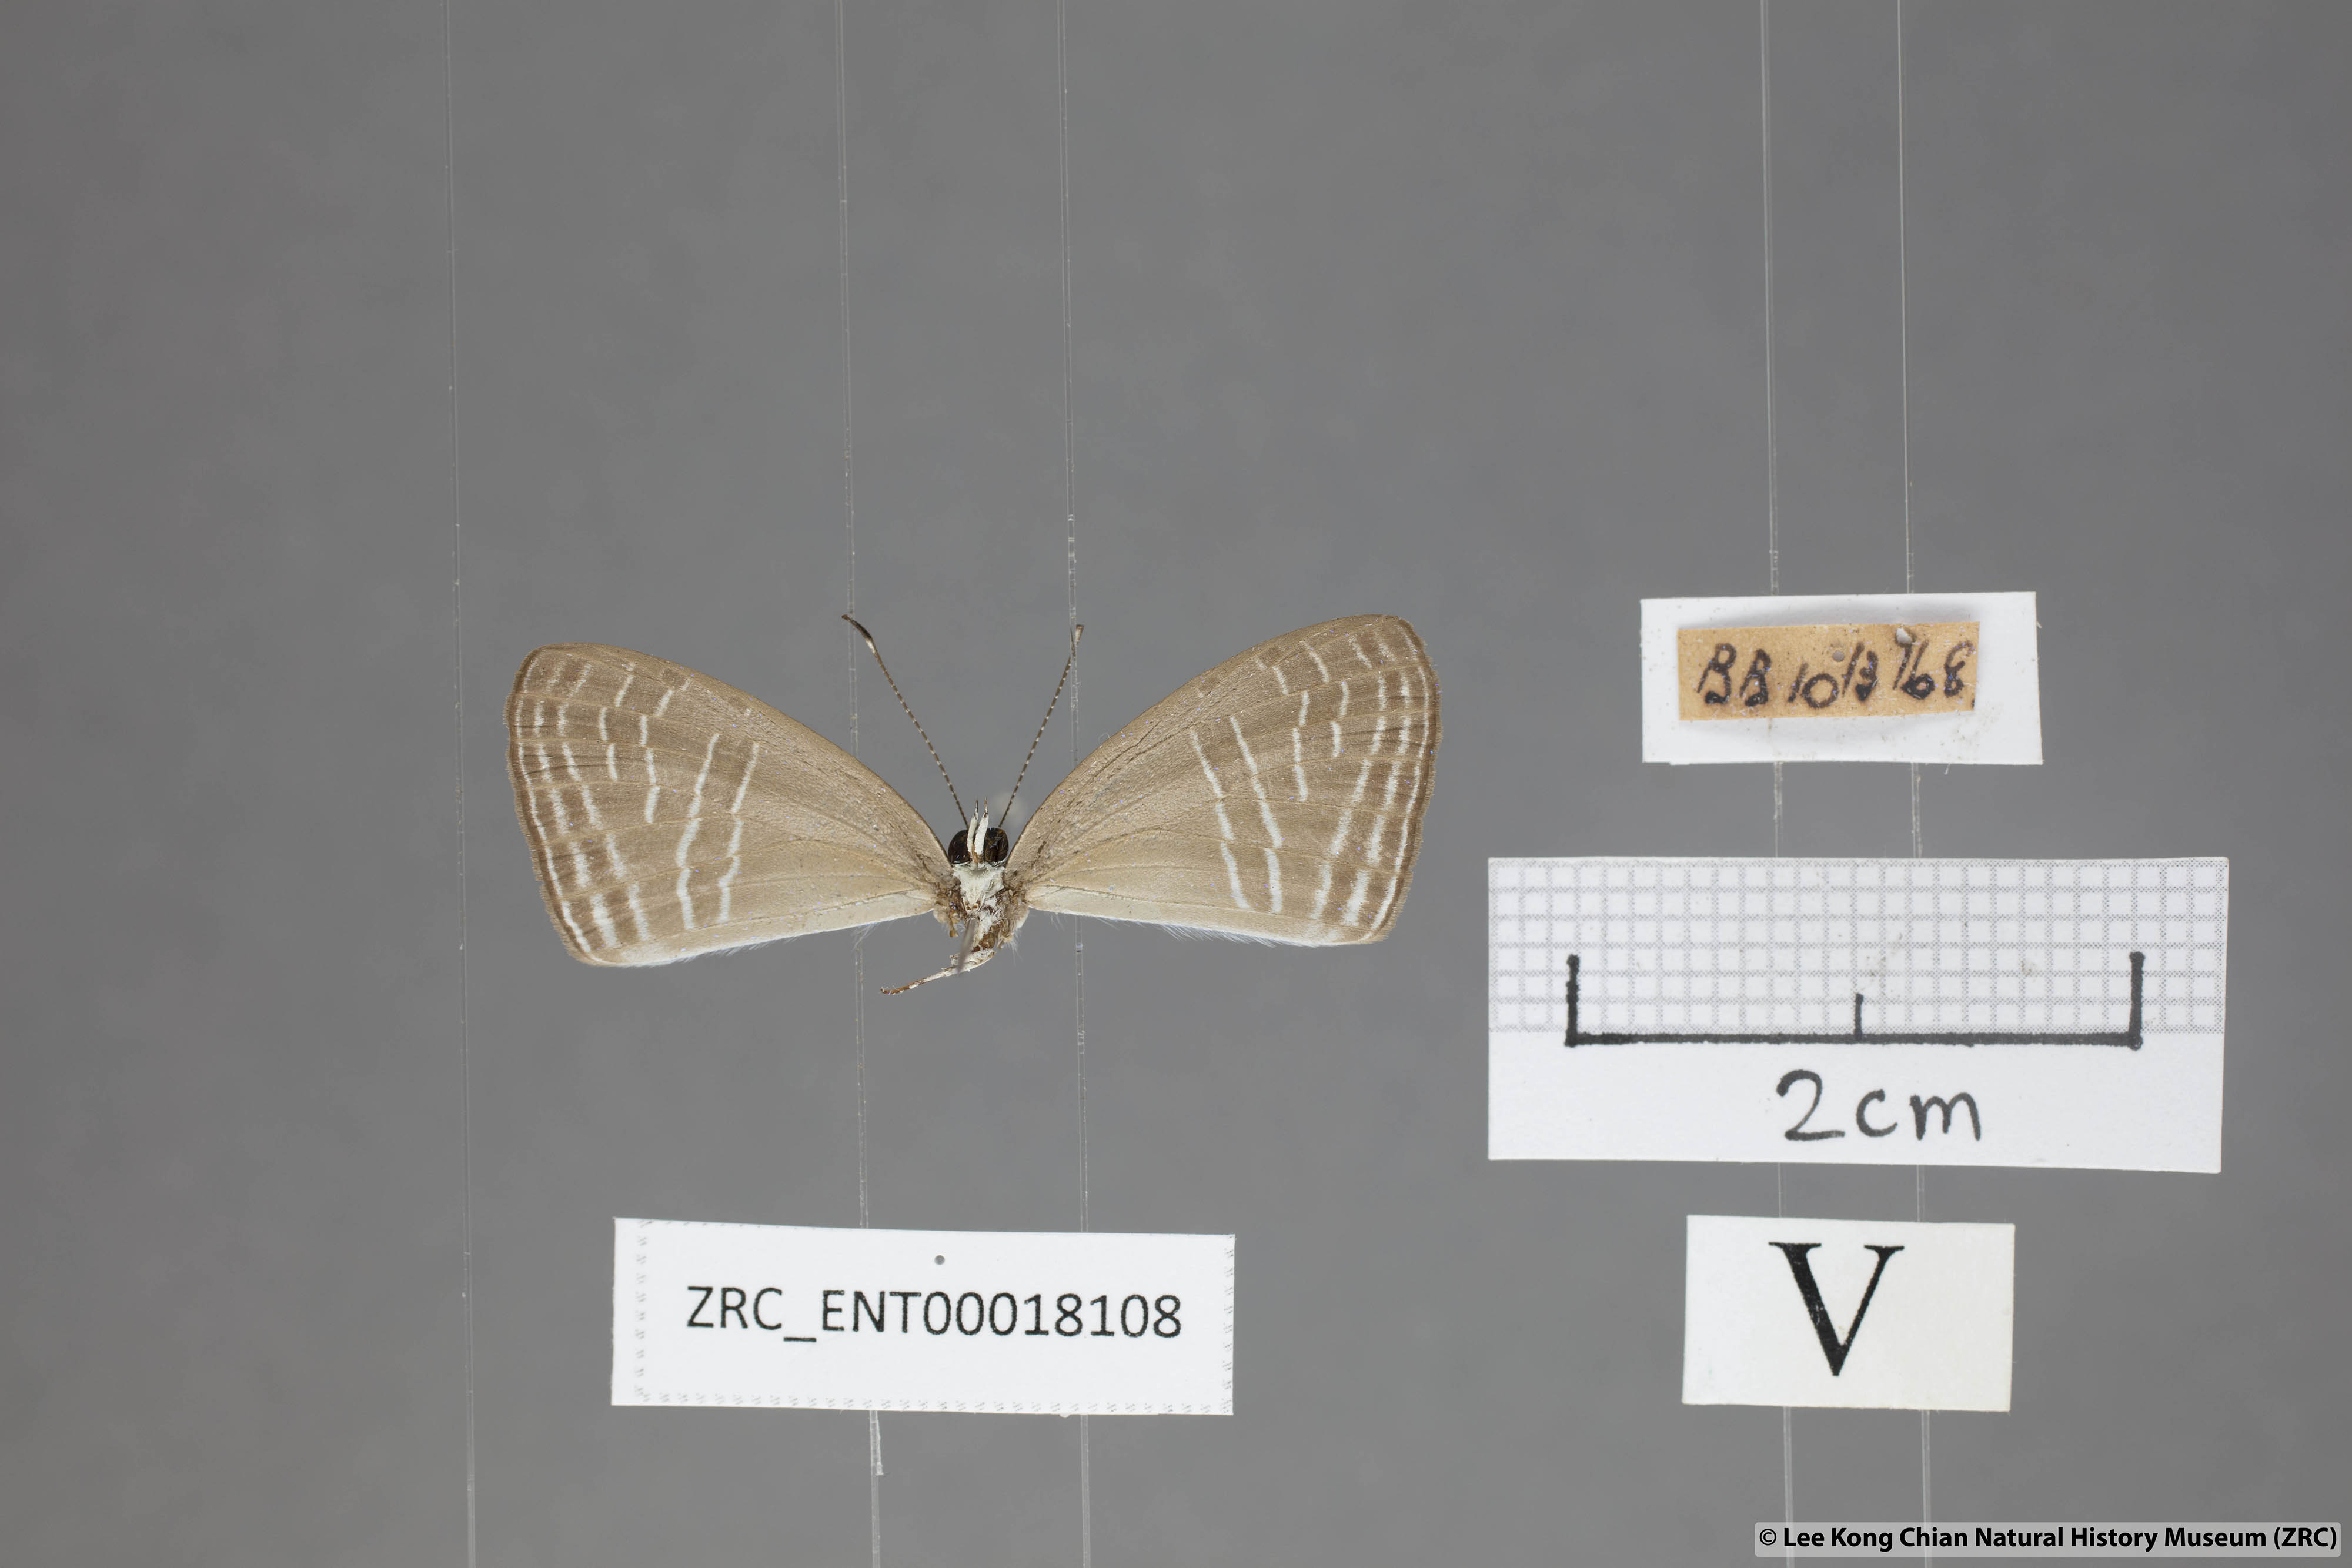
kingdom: Animalia
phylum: Arthropoda
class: Insecta
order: Lepidoptera
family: Lycaenidae
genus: Jamides
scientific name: Jamides
